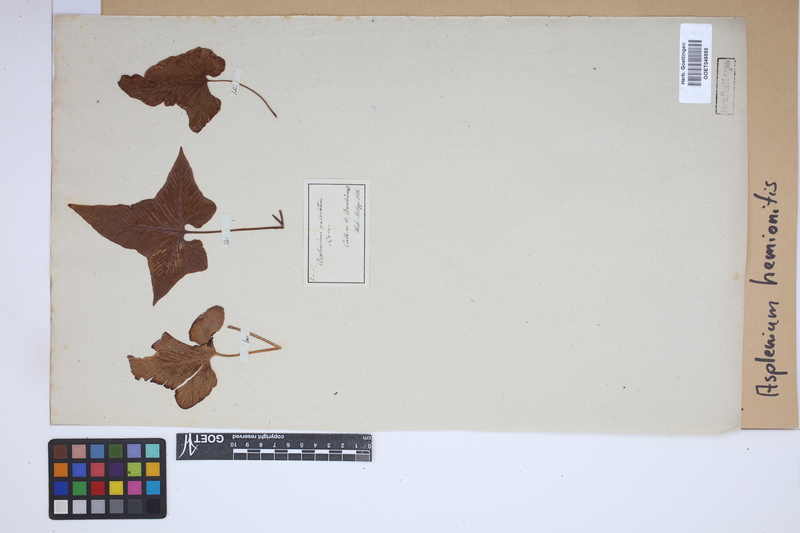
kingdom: Plantae
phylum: Tracheophyta
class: Polypodiopsida
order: Polypodiales
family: Aspleniaceae
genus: Asplenium
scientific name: Asplenium hemionitis
